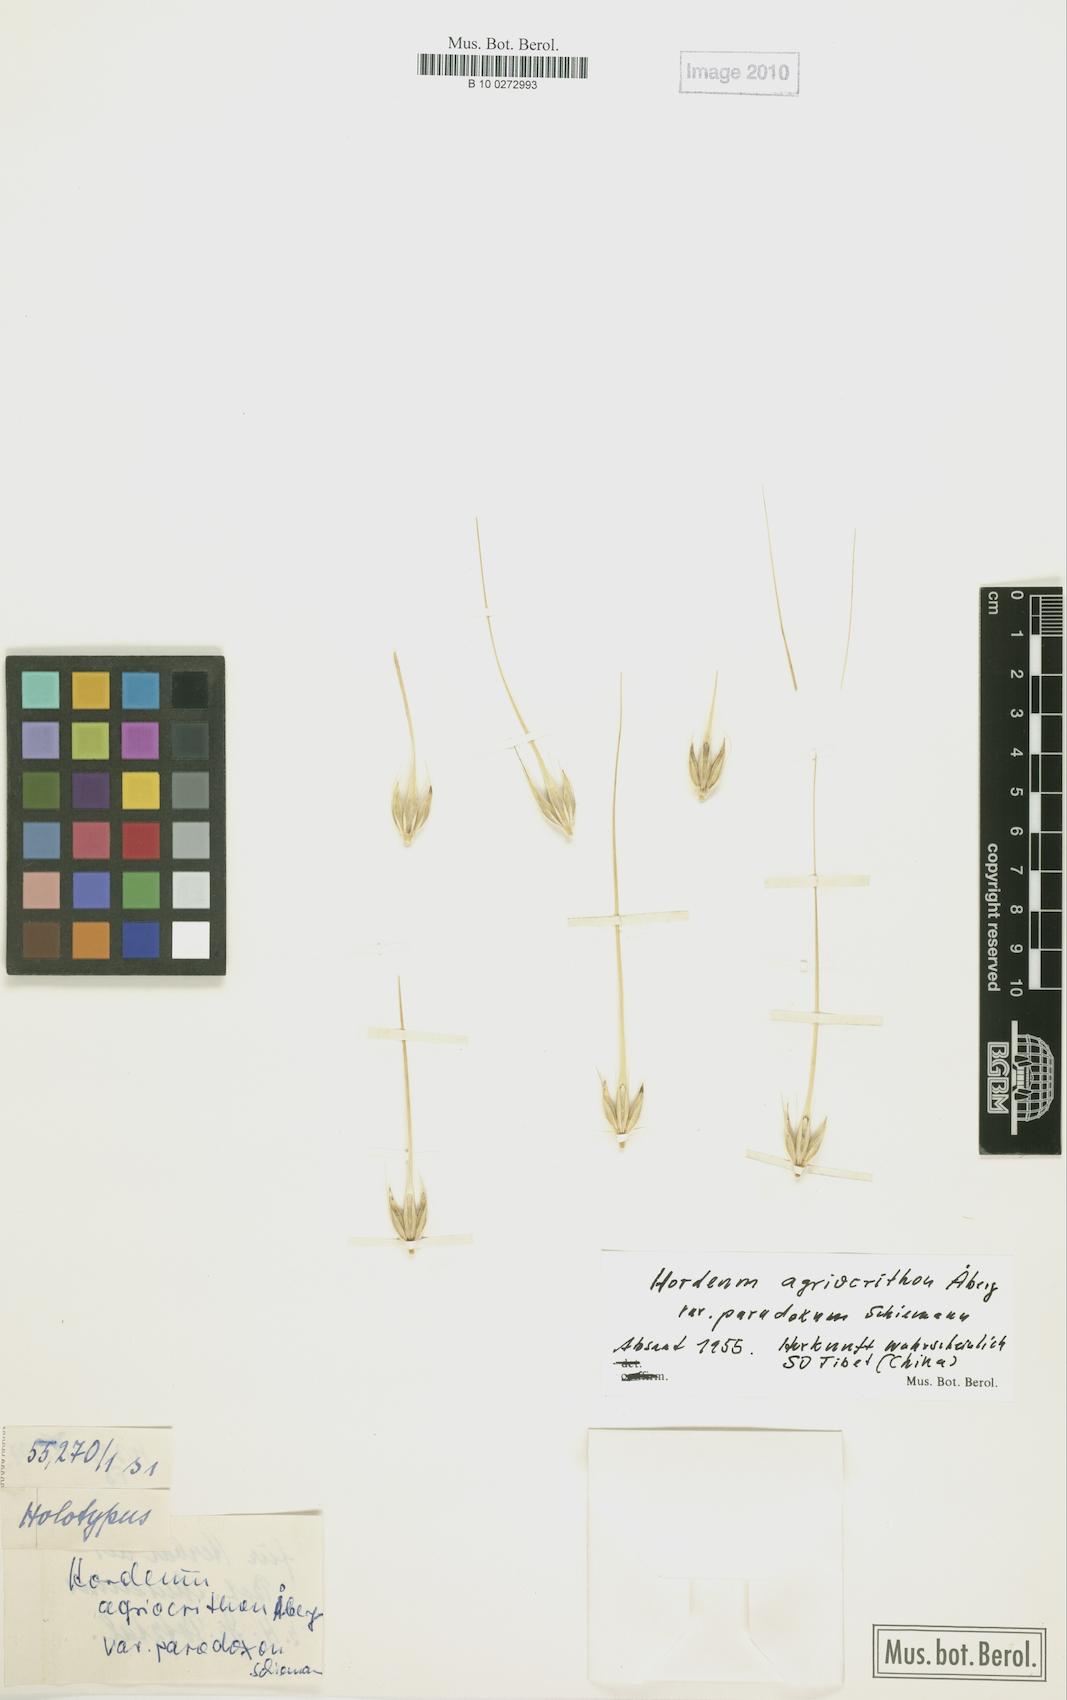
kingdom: Plantae
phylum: Tracheophyta
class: Liliopsida
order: Poales
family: Poaceae
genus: Hordeum
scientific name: Hordeum spontaneum
